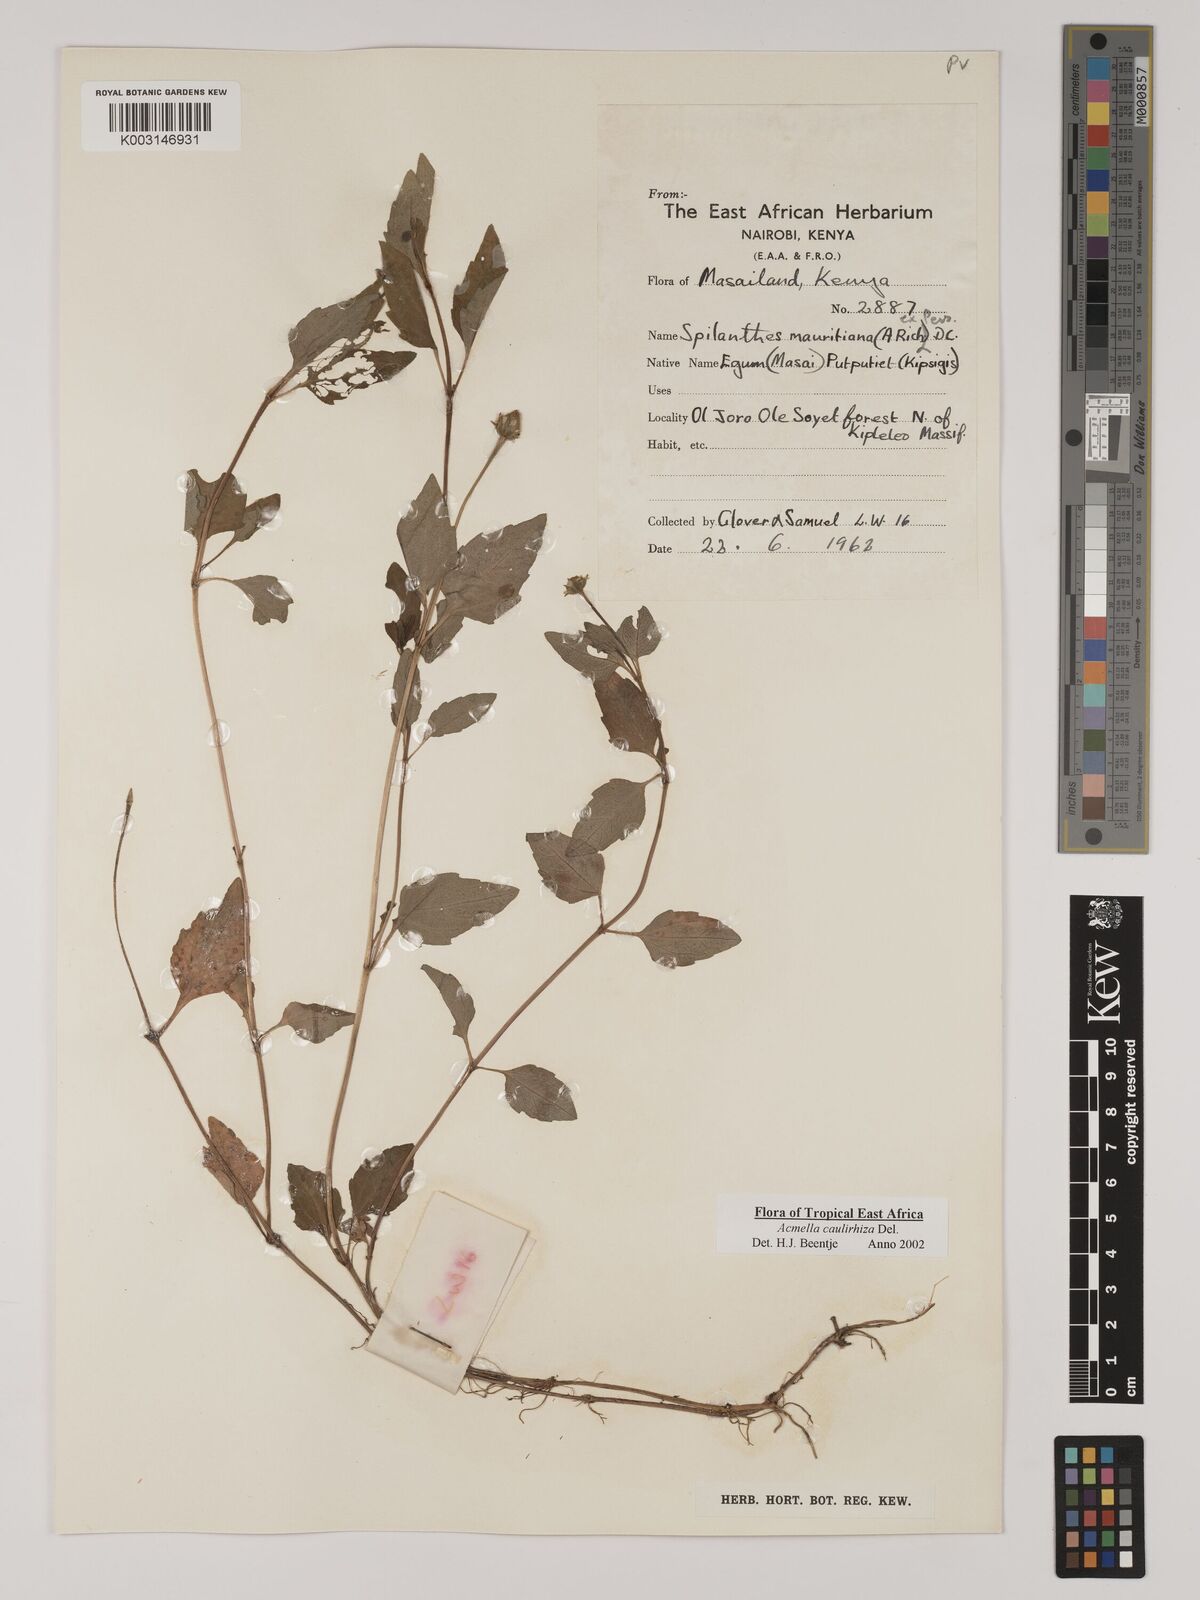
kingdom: Plantae
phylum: Tracheophyta
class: Magnoliopsida
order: Asterales
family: Asteraceae
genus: Acmella
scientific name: Acmella caulirhiza
